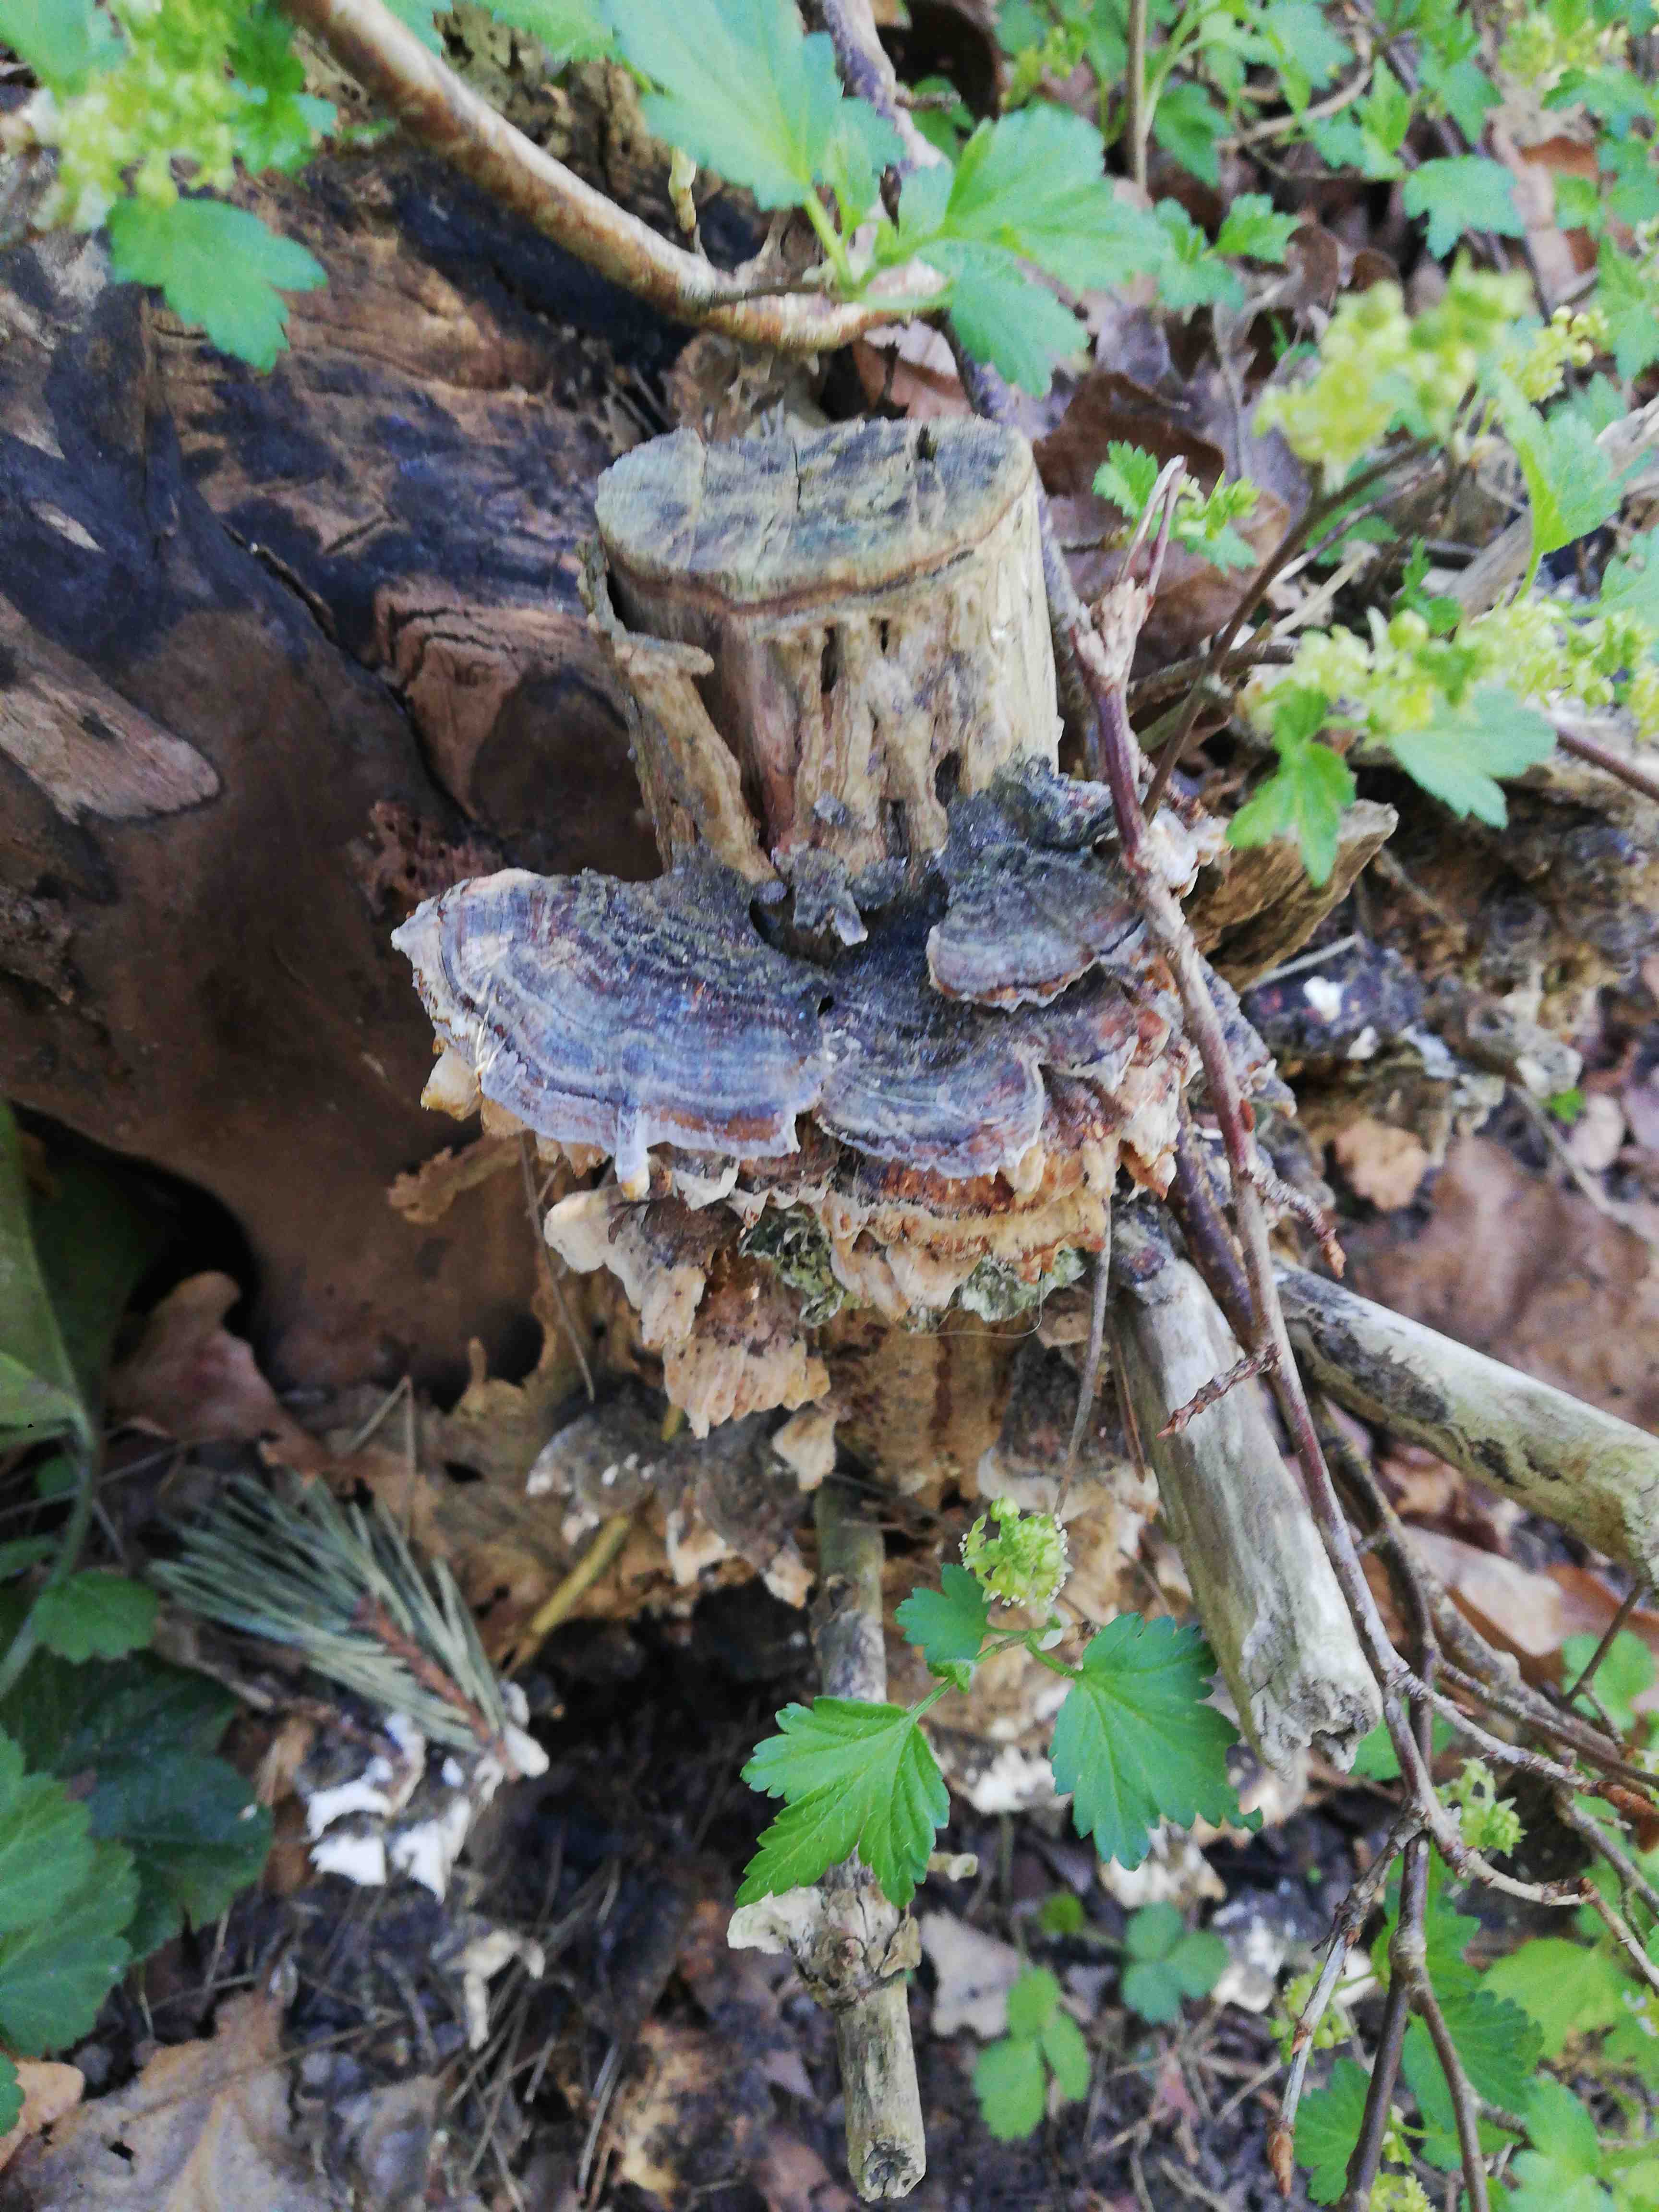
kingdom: Fungi
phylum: Basidiomycota
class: Agaricomycetes
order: Polyporales
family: Polyporaceae
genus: Trametes
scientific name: Trametes versicolor
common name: broget læderporesvamp
